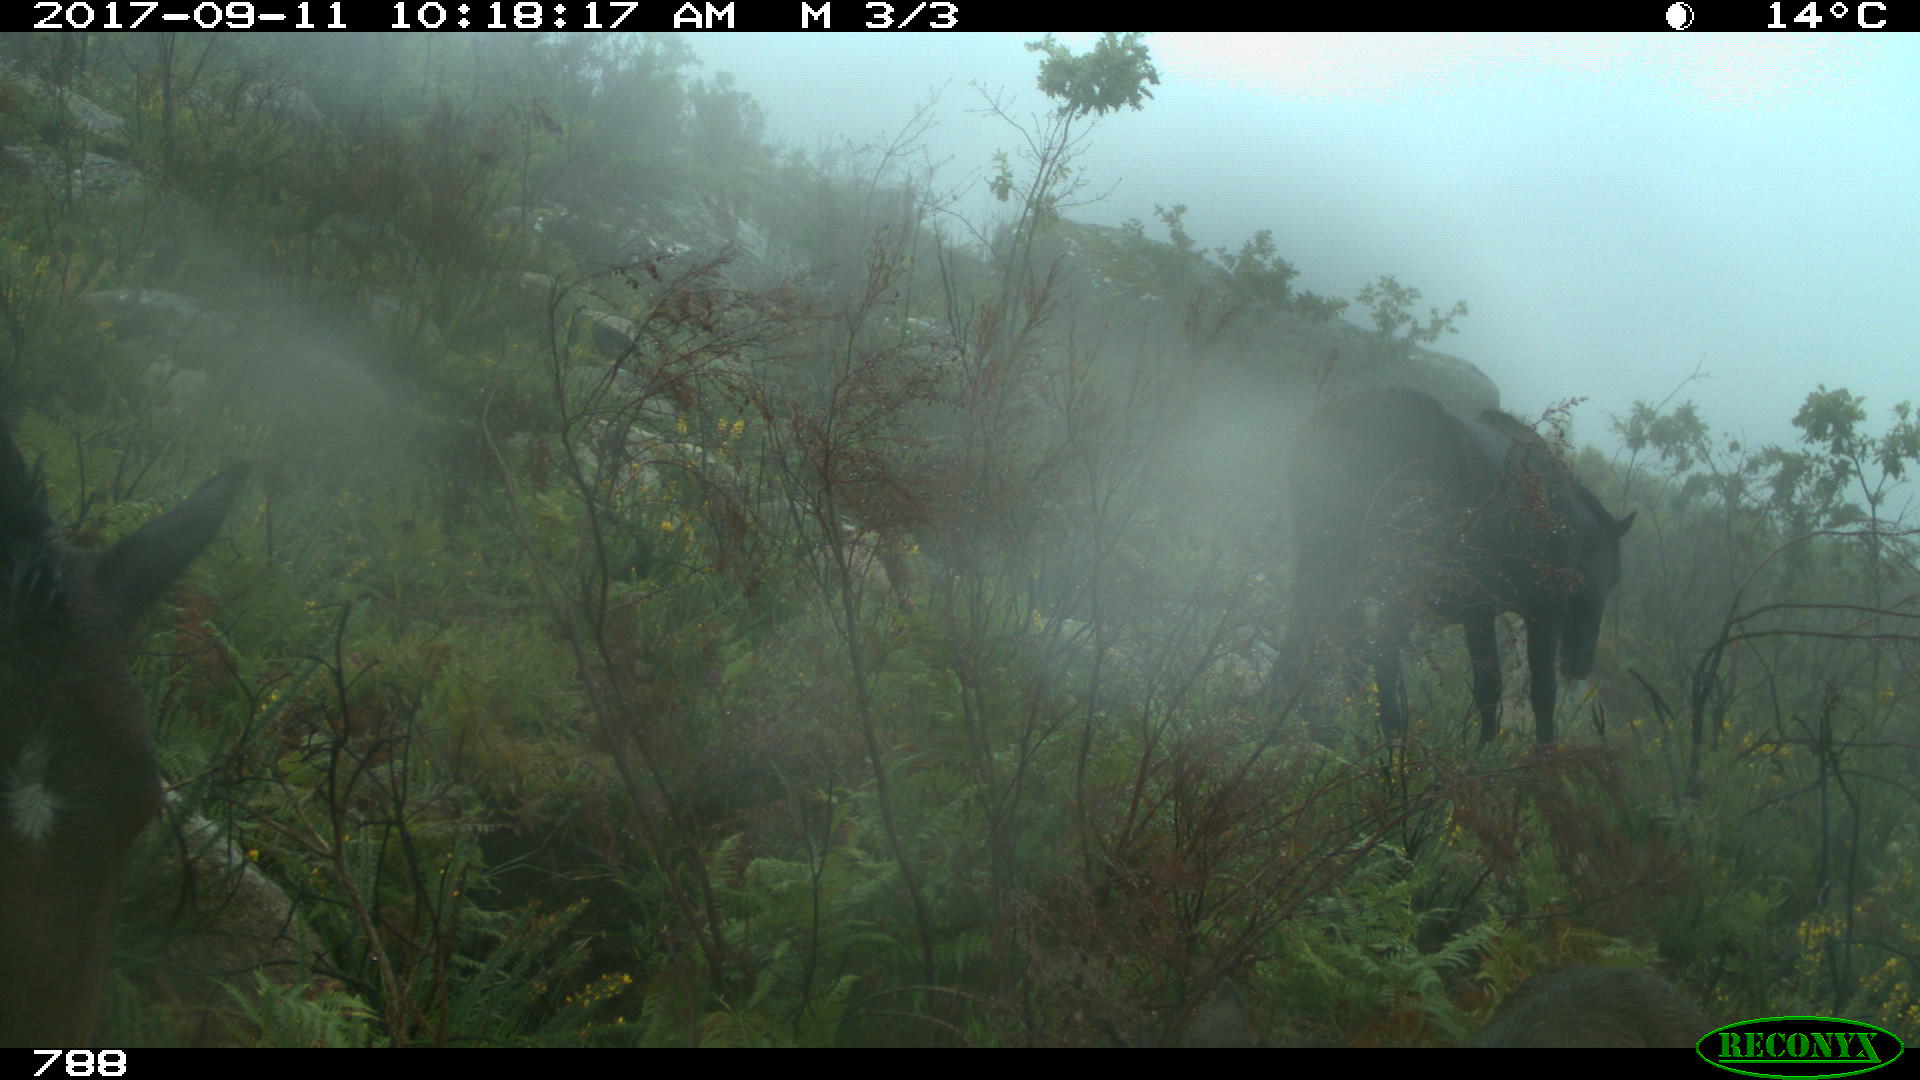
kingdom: Animalia
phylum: Chordata
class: Mammalia
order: Perissodactyla
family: Equidae
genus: Equus
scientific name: Equus caballus
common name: Horse
